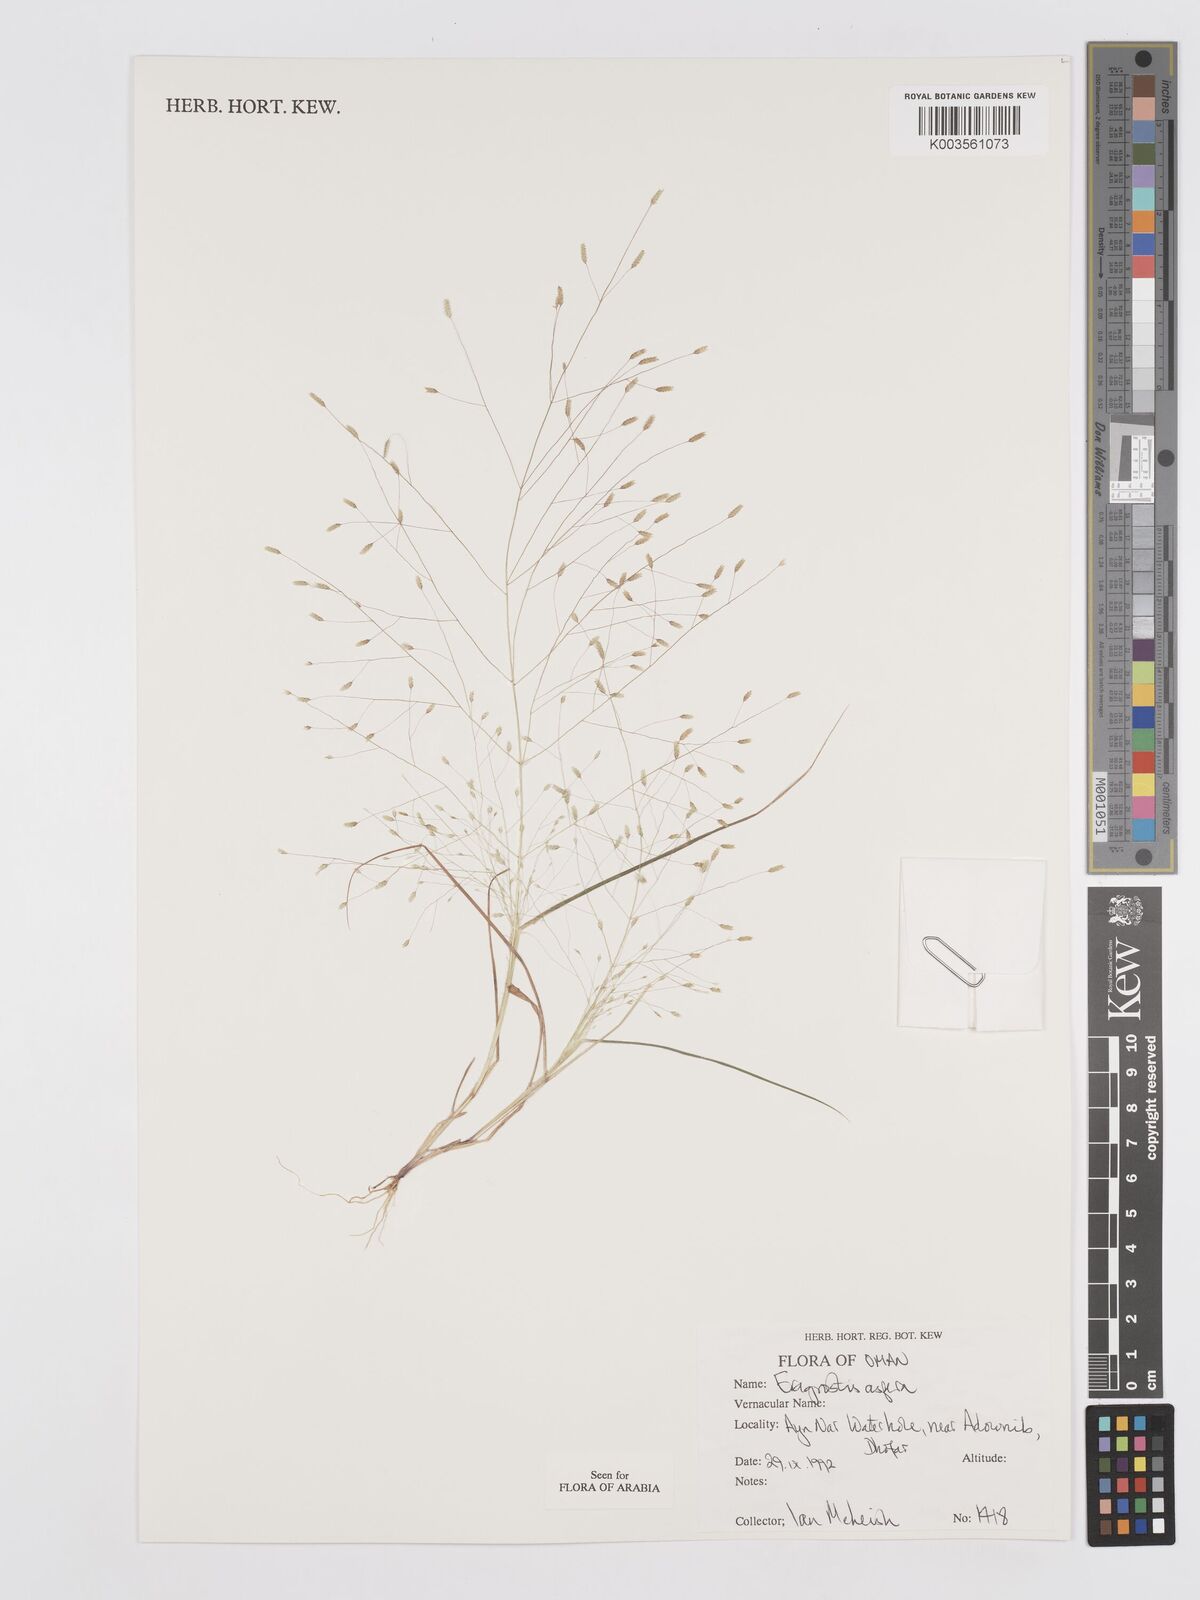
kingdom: Plantae
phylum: Tracheophyta
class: Liliopsida
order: Poales
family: Poaceae
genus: Eragrostis
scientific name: Eragrostis aspera
